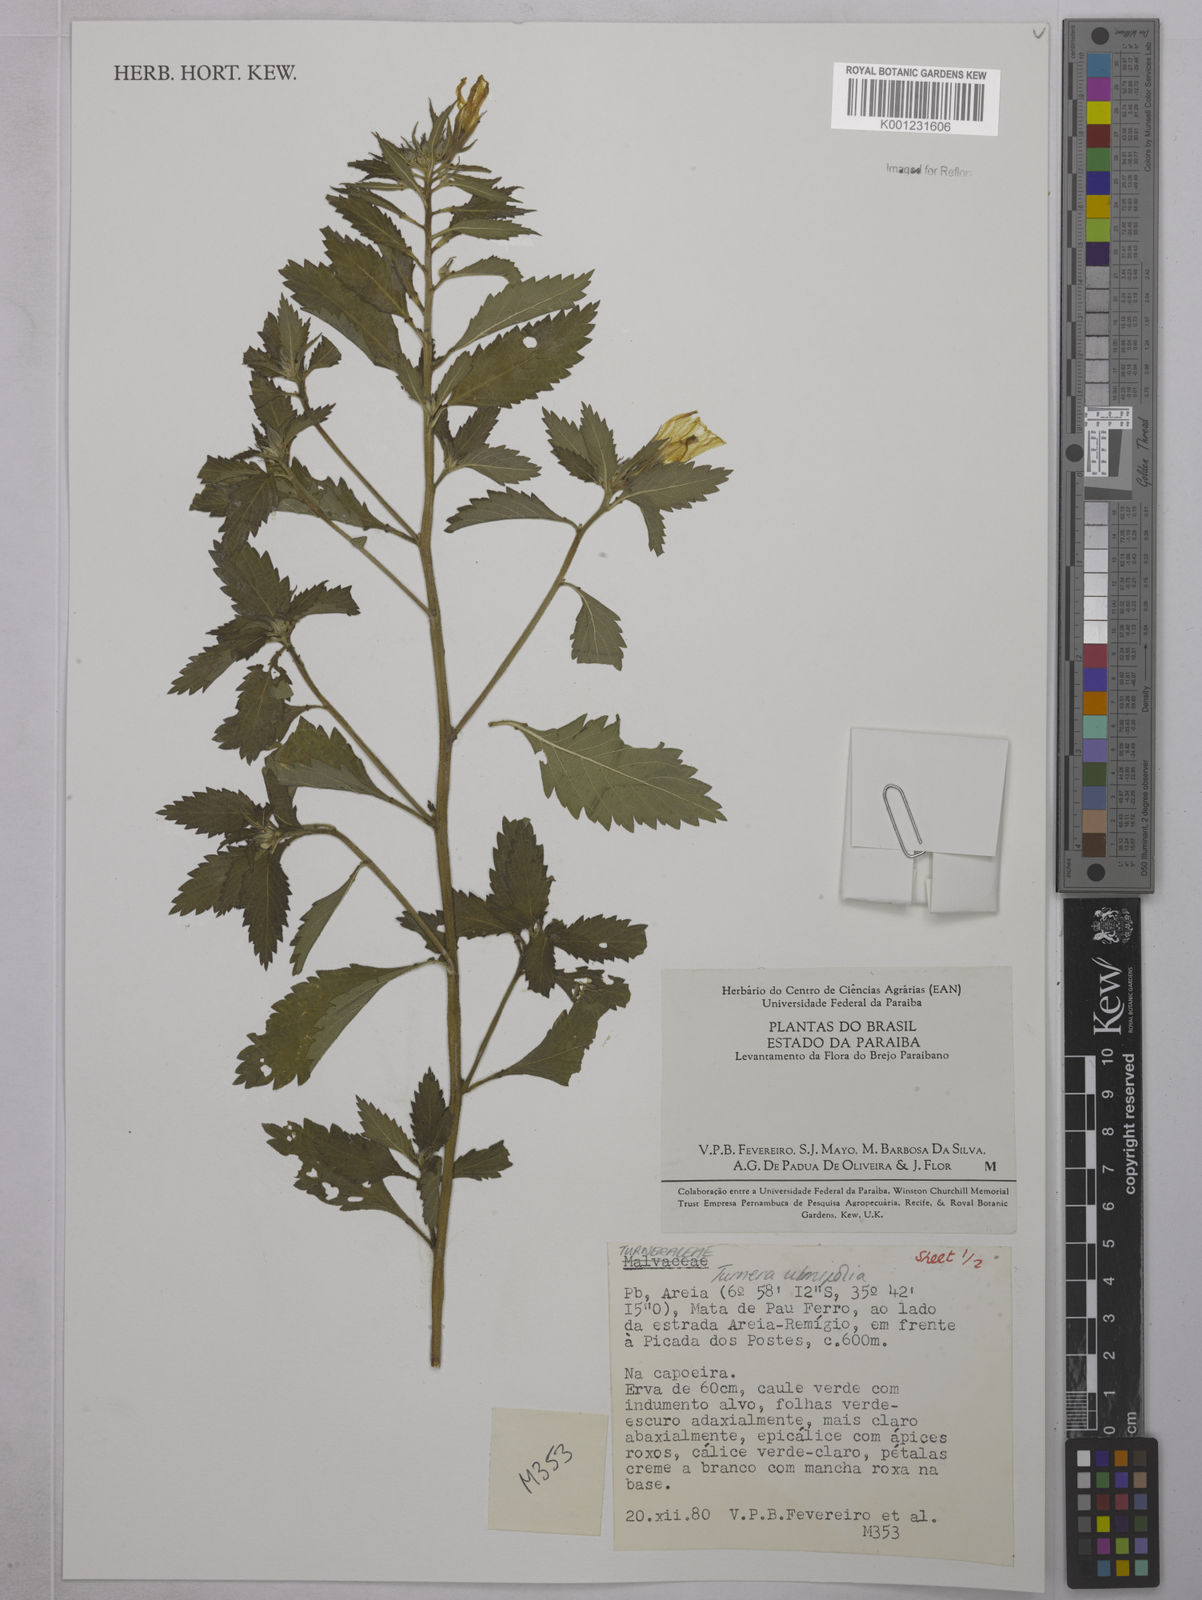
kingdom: Plantae
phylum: Tracheophyta
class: Magnoliopsida
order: Malpighiales
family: Turneraceae
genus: Turnera
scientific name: Turnera ulmifolia
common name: Ramgoat dashalong
